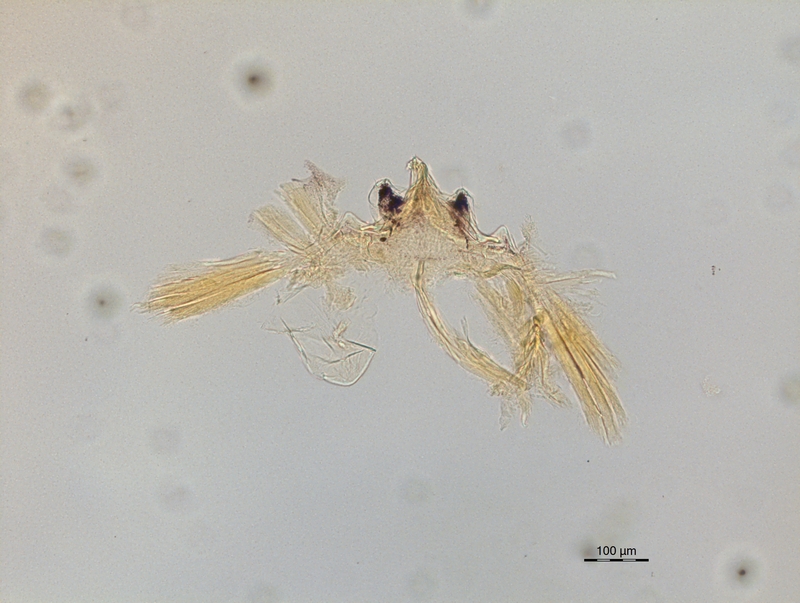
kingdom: Animalia
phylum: Arthropoda
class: Diplopoda
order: Chordeumatida
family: Craspedosomatidae
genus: Ochogona
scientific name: Ochogona pusilla
